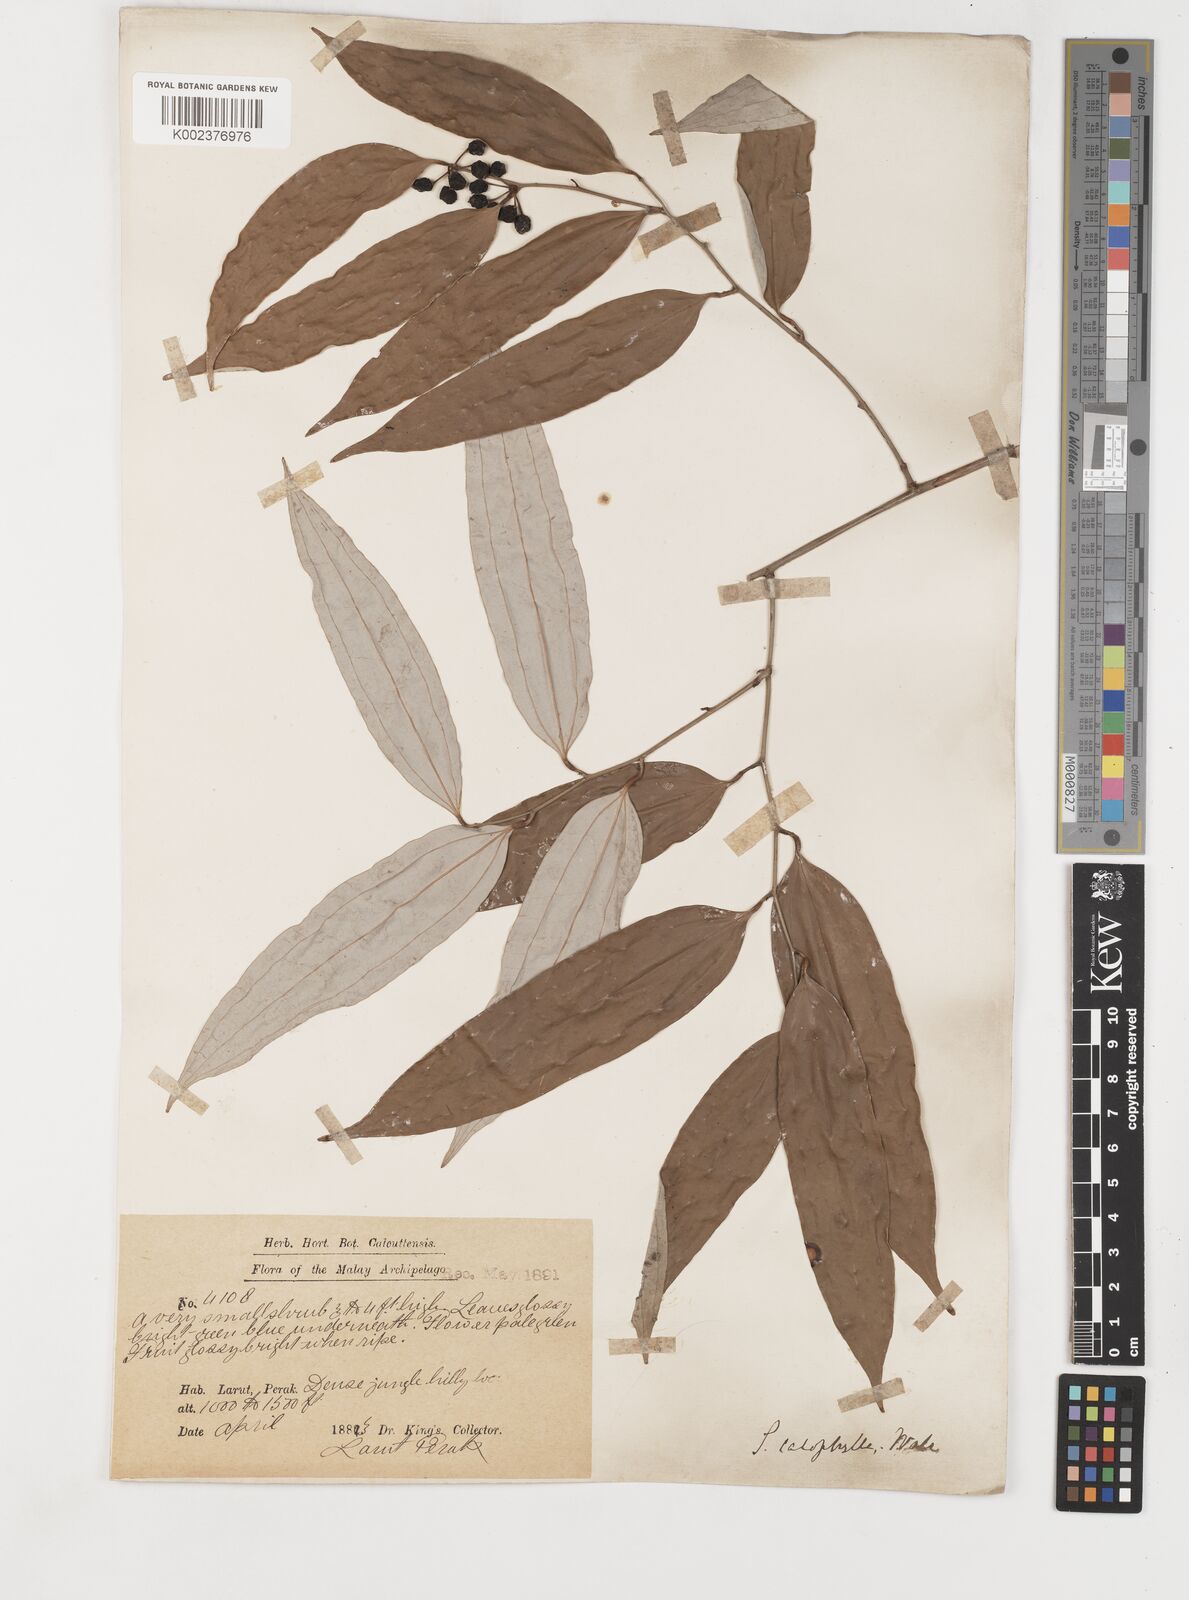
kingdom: Plantae
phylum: Tracheophyta
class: Liliopsida
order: Liliales
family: Smilacaceae
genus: Smilax
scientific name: Smilax calophylla
